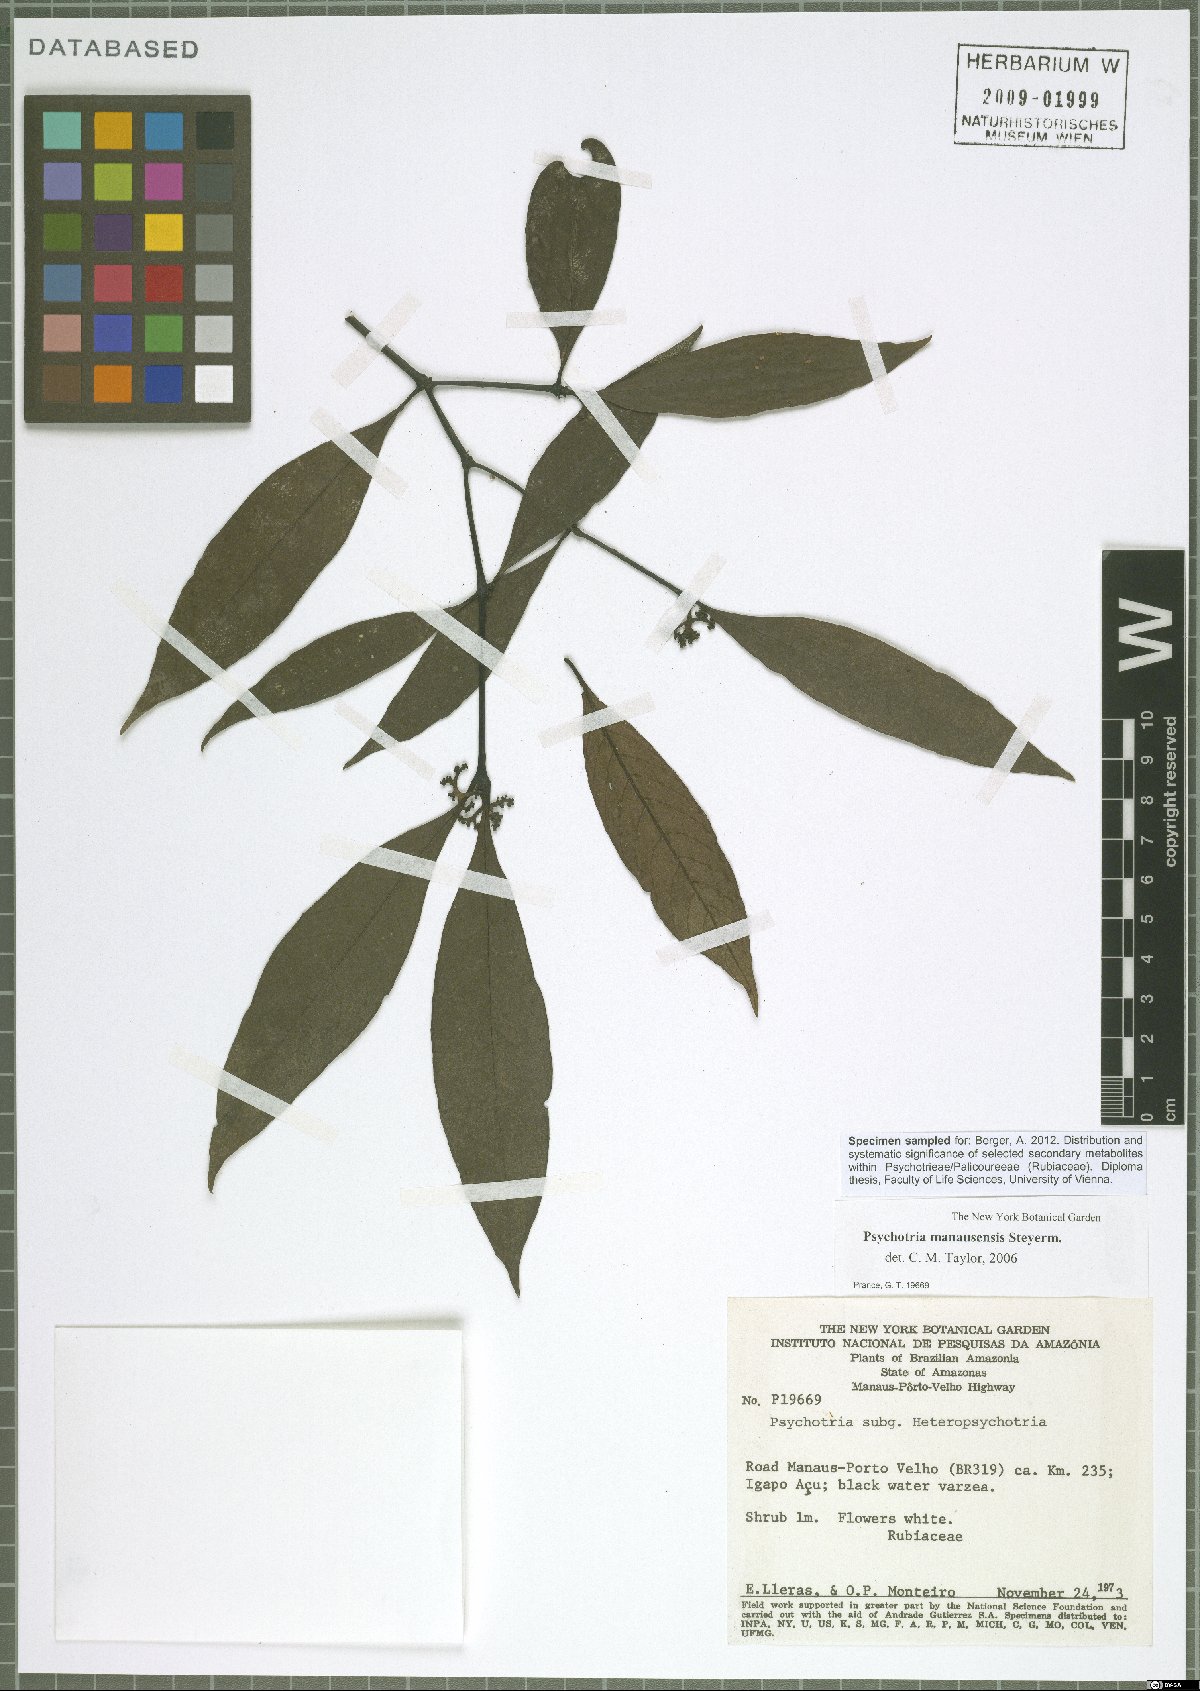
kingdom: Plantae
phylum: Tracheophyta
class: Magnoliopsida
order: Gentianales
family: Rubiaceae
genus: Palicourea
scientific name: Palicourea manausensis
